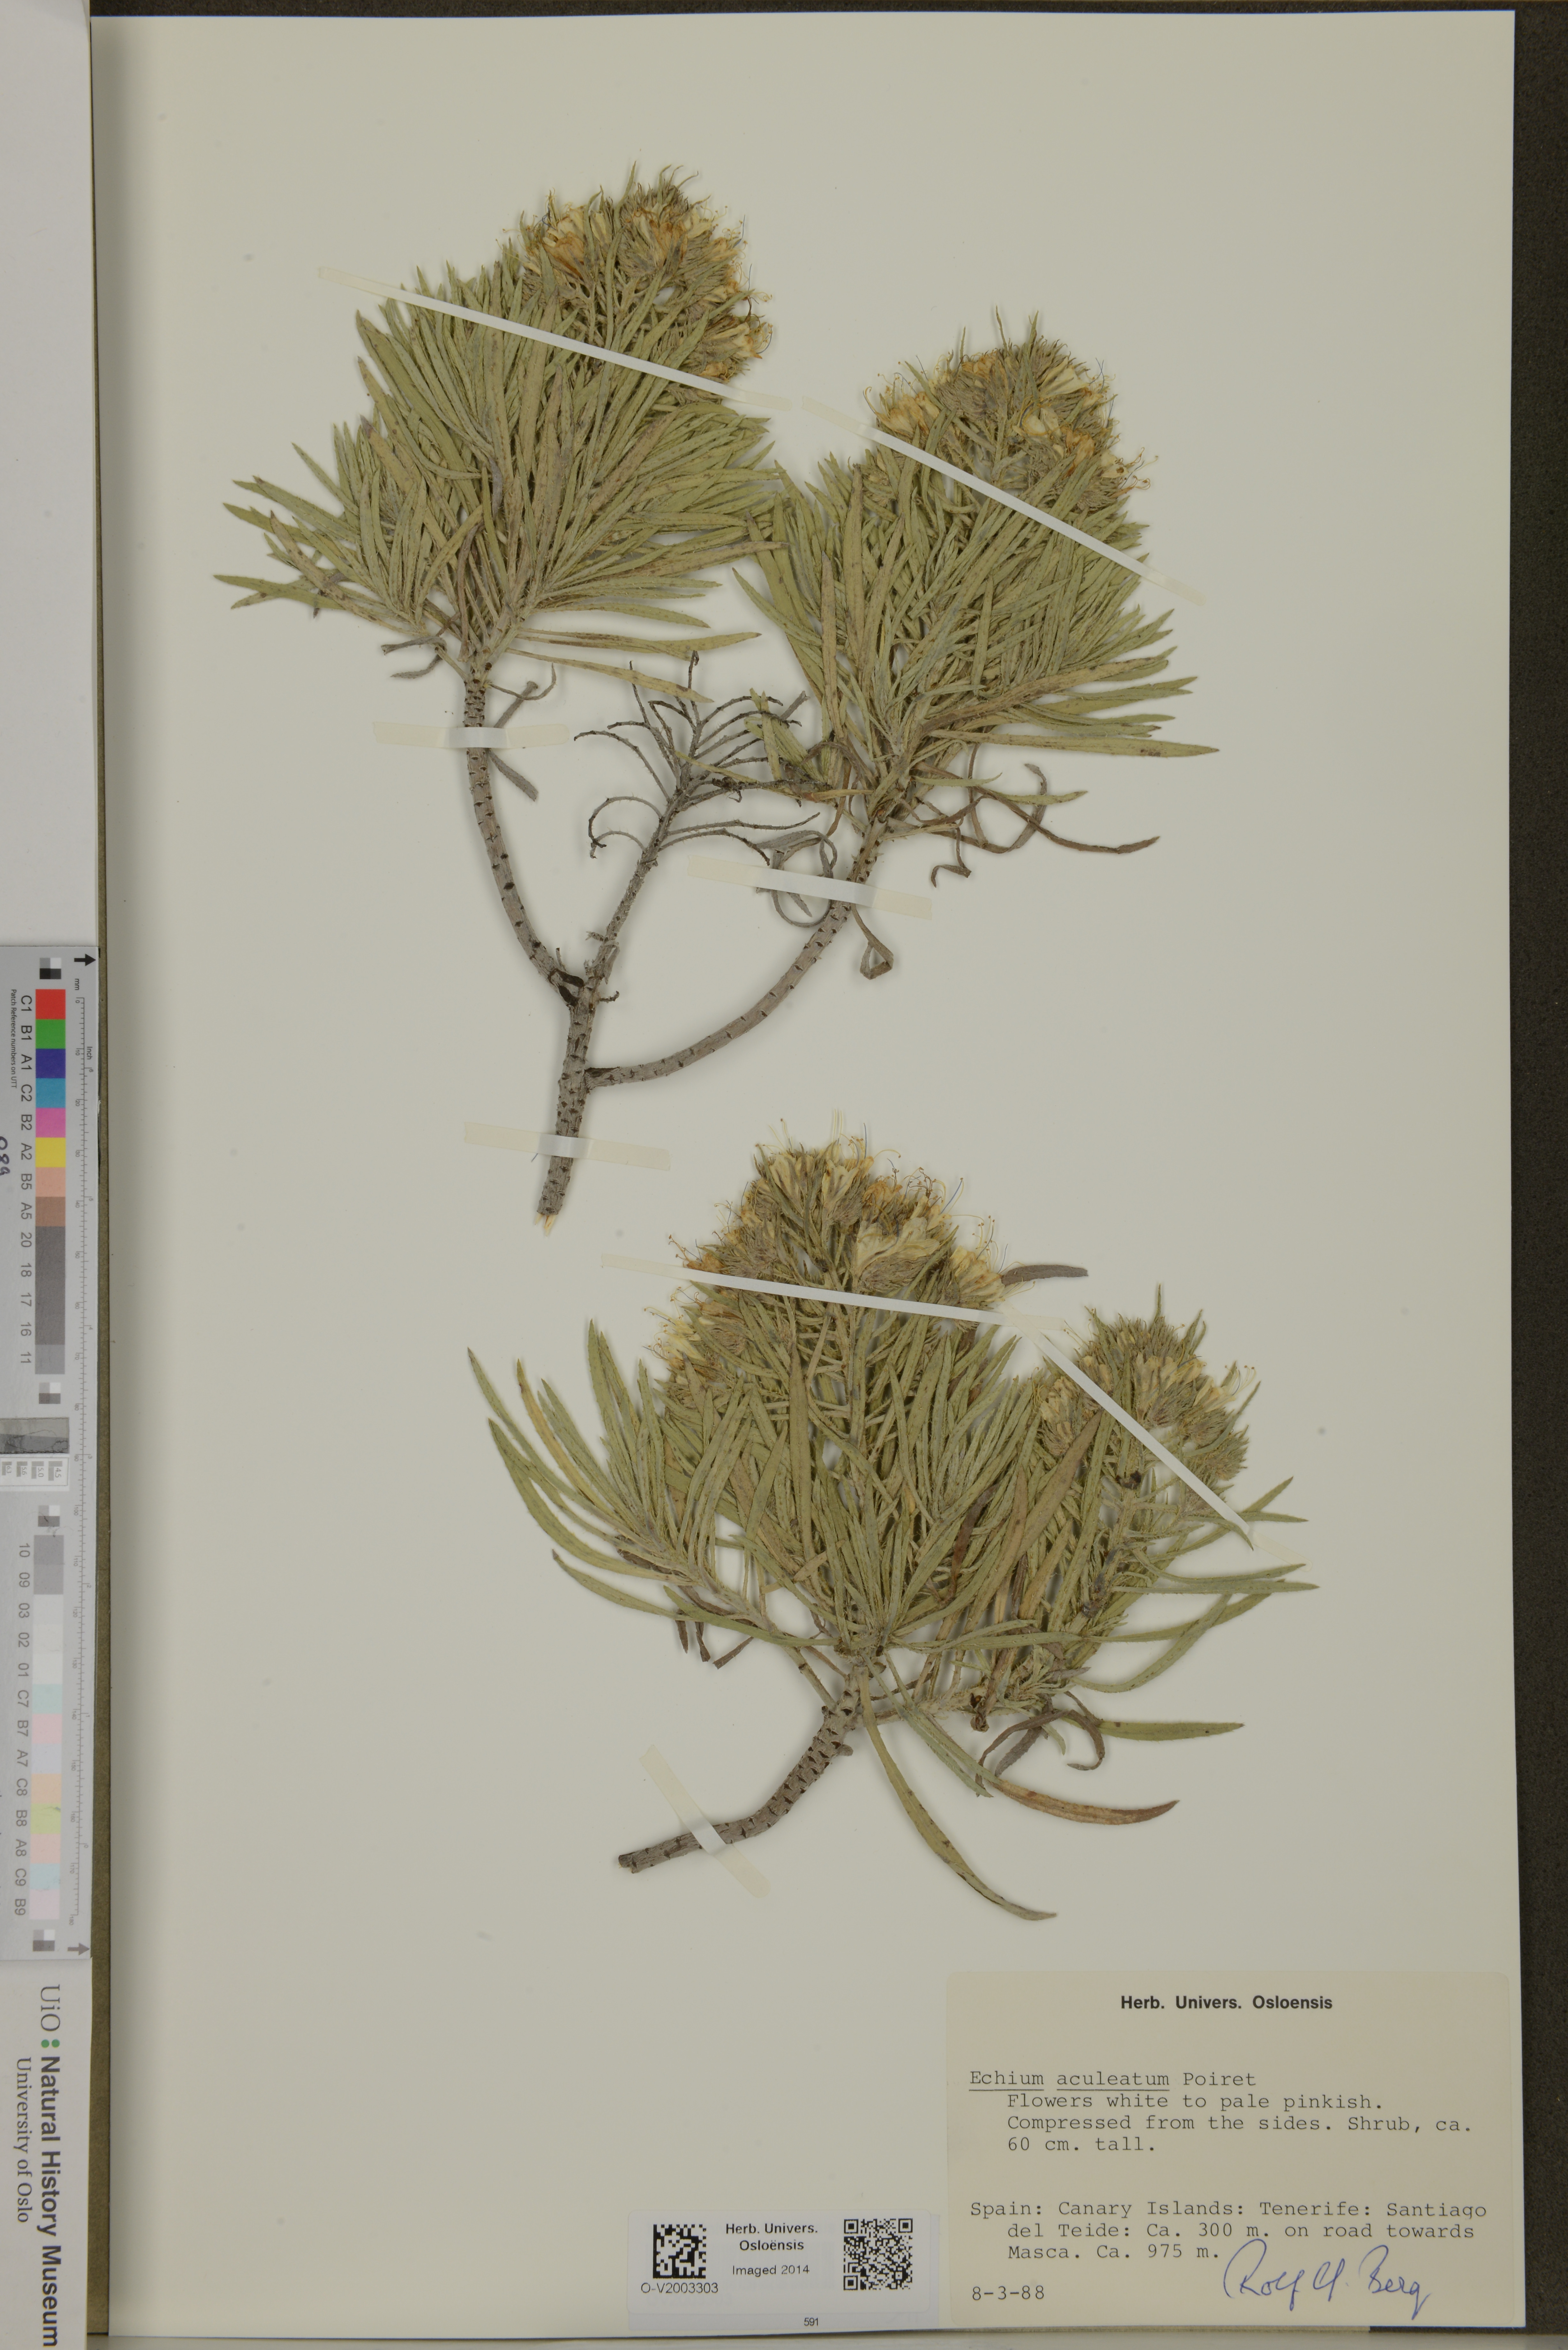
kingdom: Plantae
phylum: Tracheophyta
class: Magnoliopsida
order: Boraginales
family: Boraginaceae
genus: Echium
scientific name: Echium aculeatum
